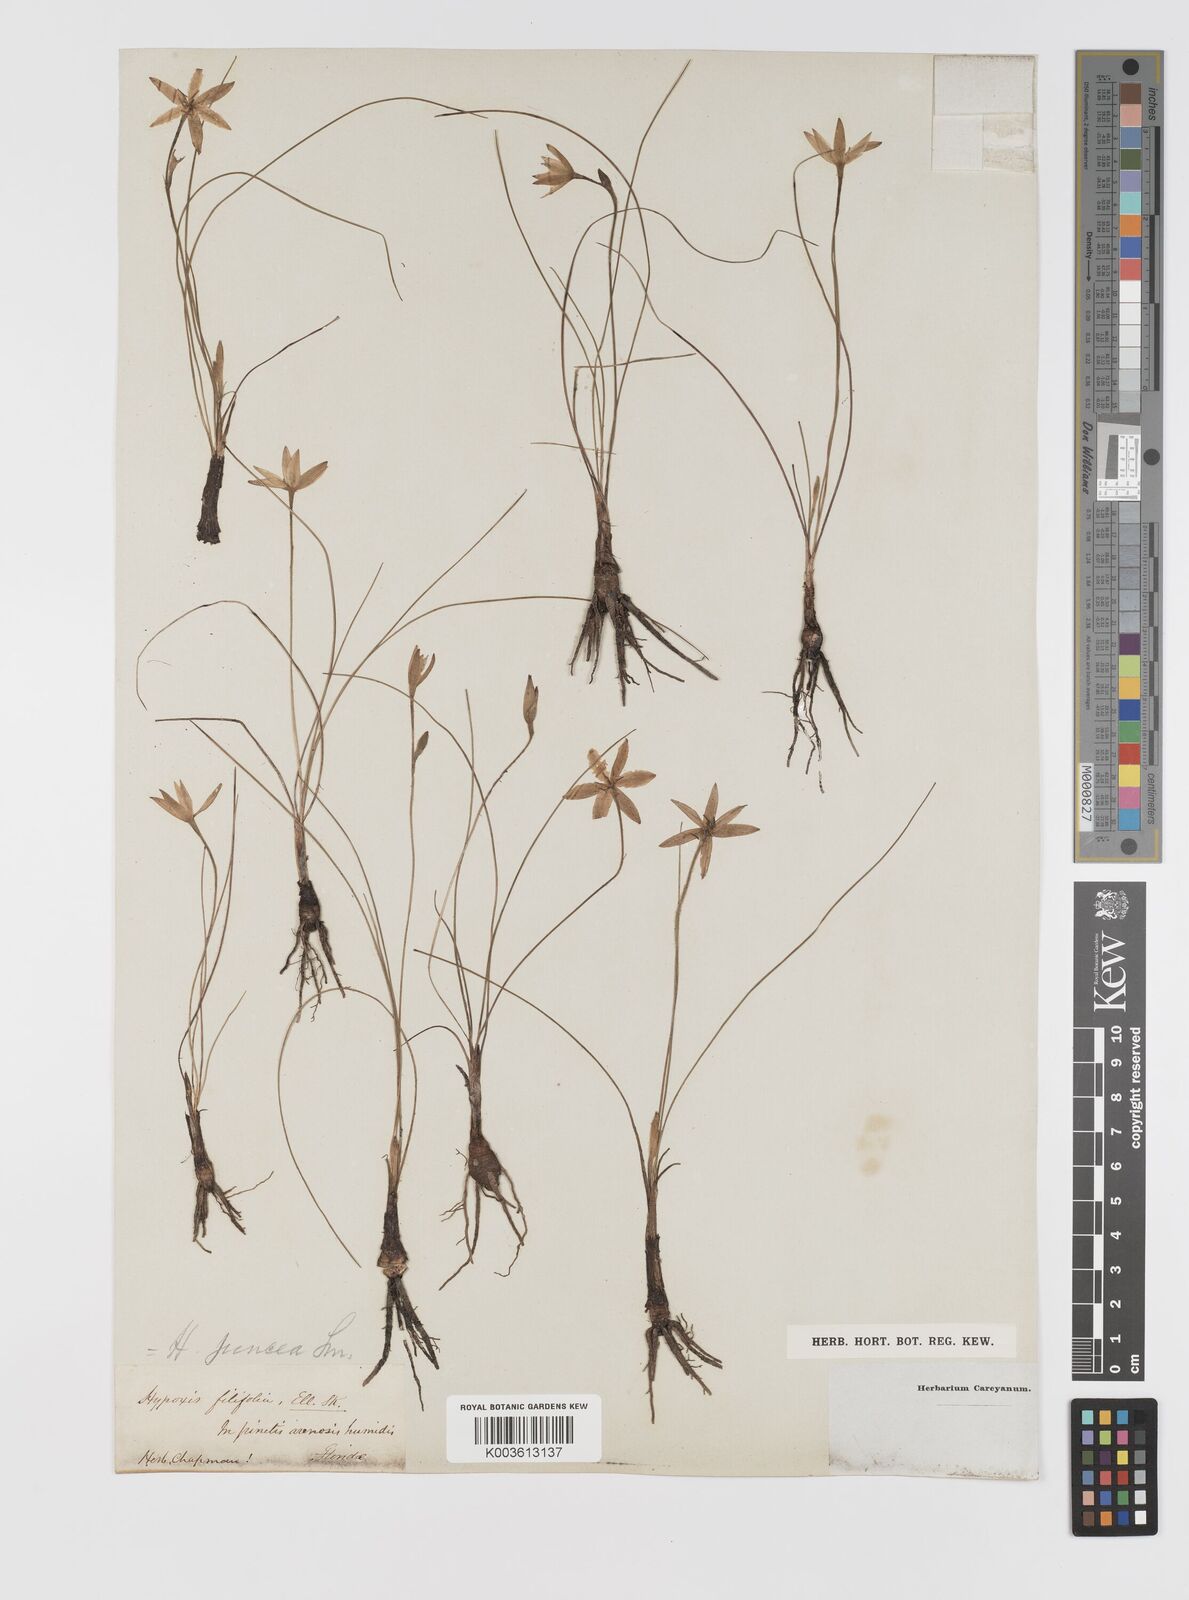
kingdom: Plantae
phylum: Tracheophyta
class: Liliopsida
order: Asparagales
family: Hypoxidaceae
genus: Hypoxis
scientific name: Hypoxis juncea
